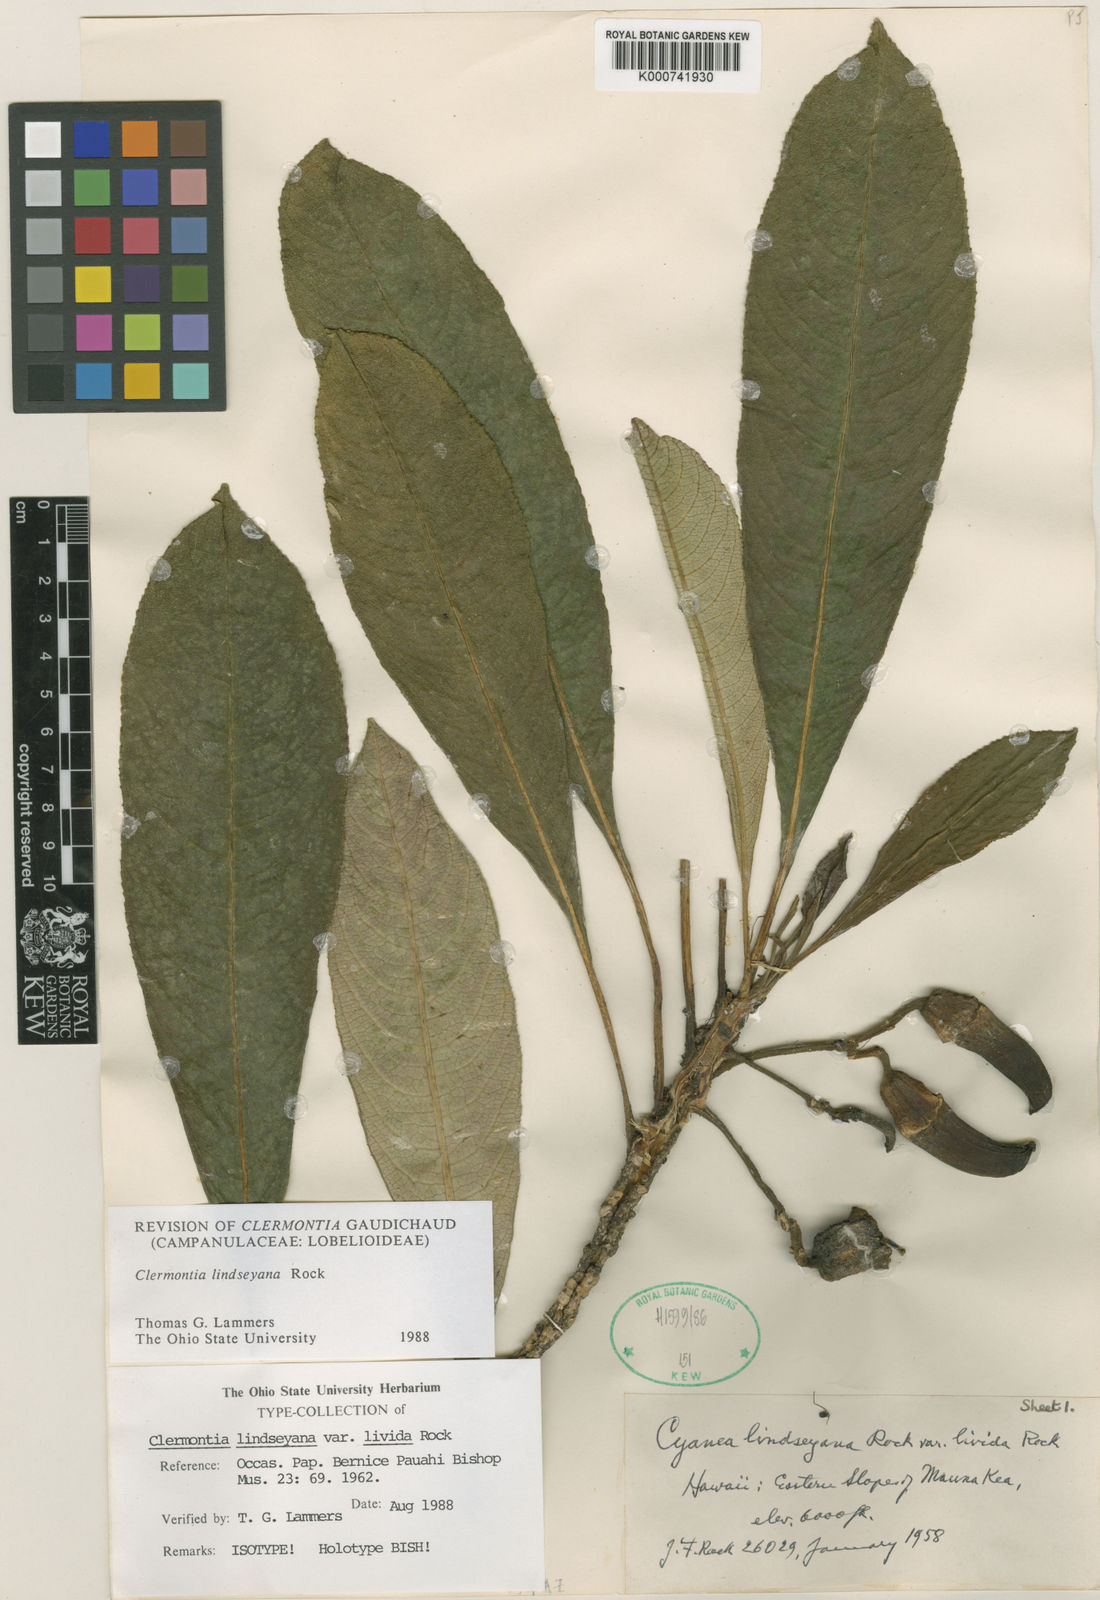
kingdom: Plantae
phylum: Tracheophyta
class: Magnoliopsida
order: Asterales
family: Campanulaceae
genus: Clermontia
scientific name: Clermontia lindseyana
